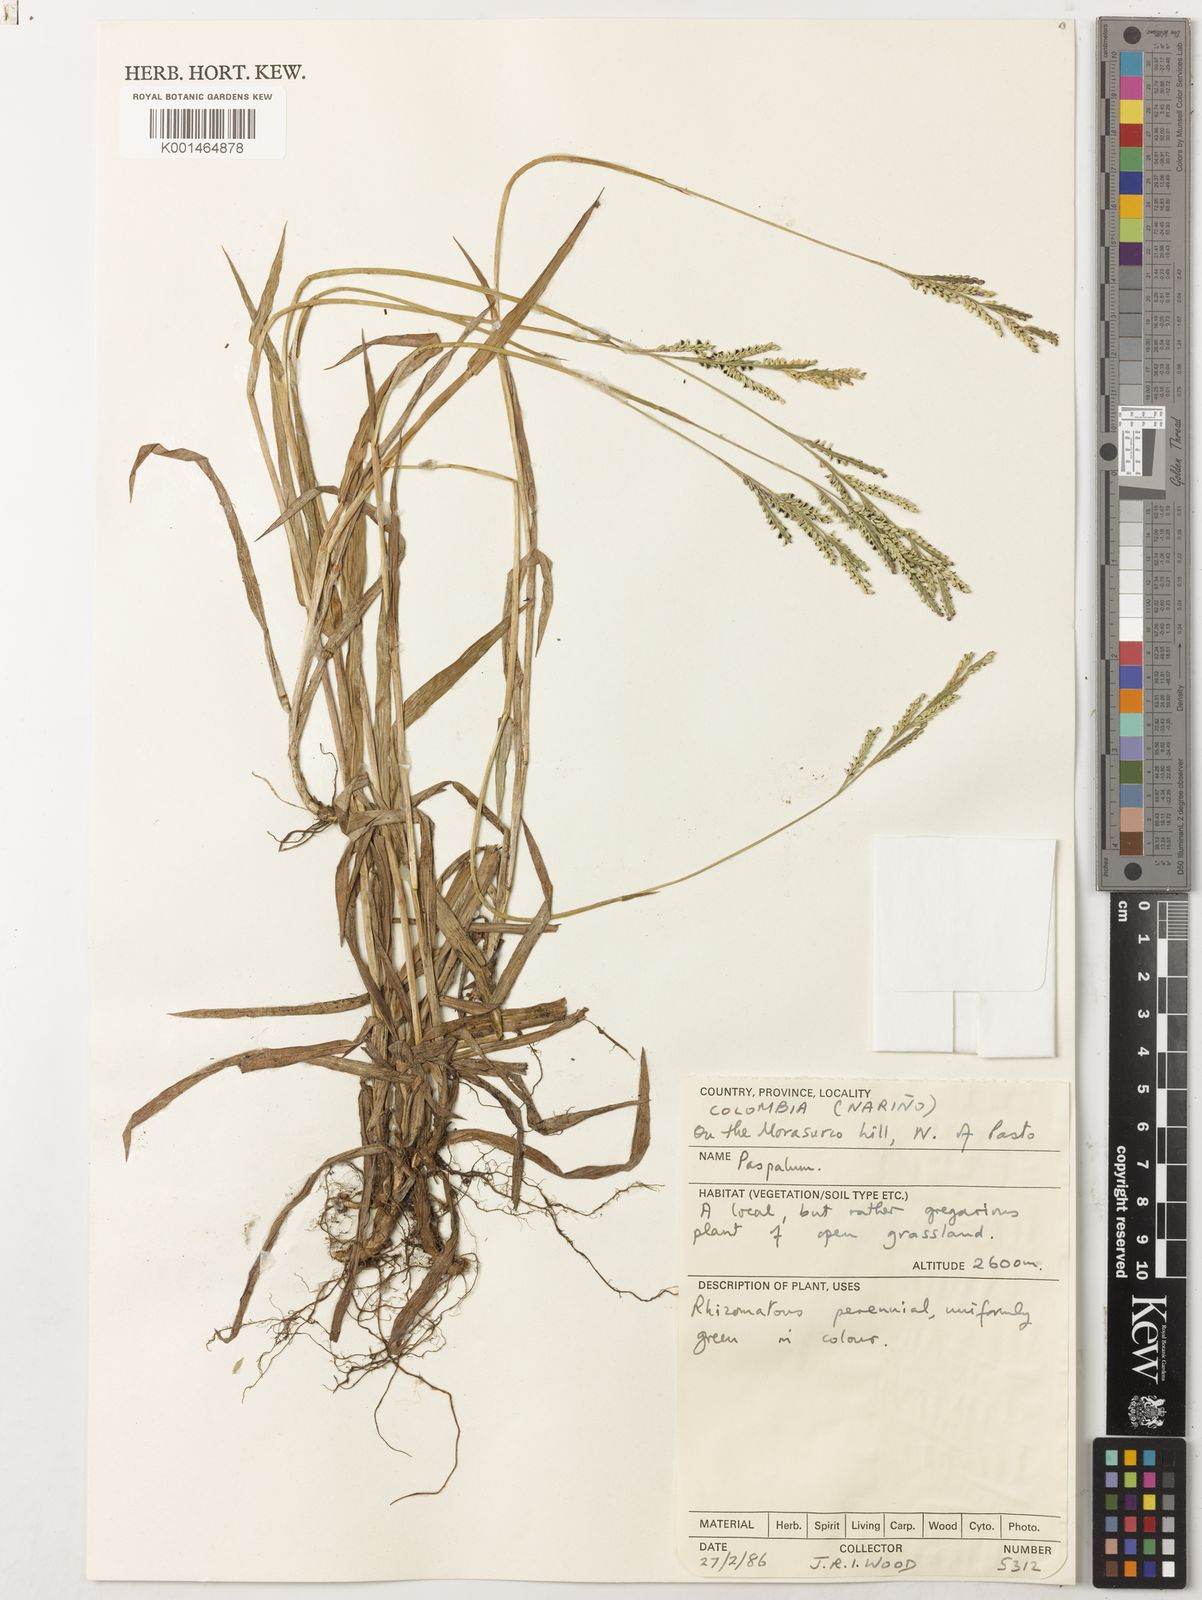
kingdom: Plantae
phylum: Tracheophyta
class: Liliopsida
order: Poales
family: Poaceae
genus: Paspalum
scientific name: Paspalum pallidum
